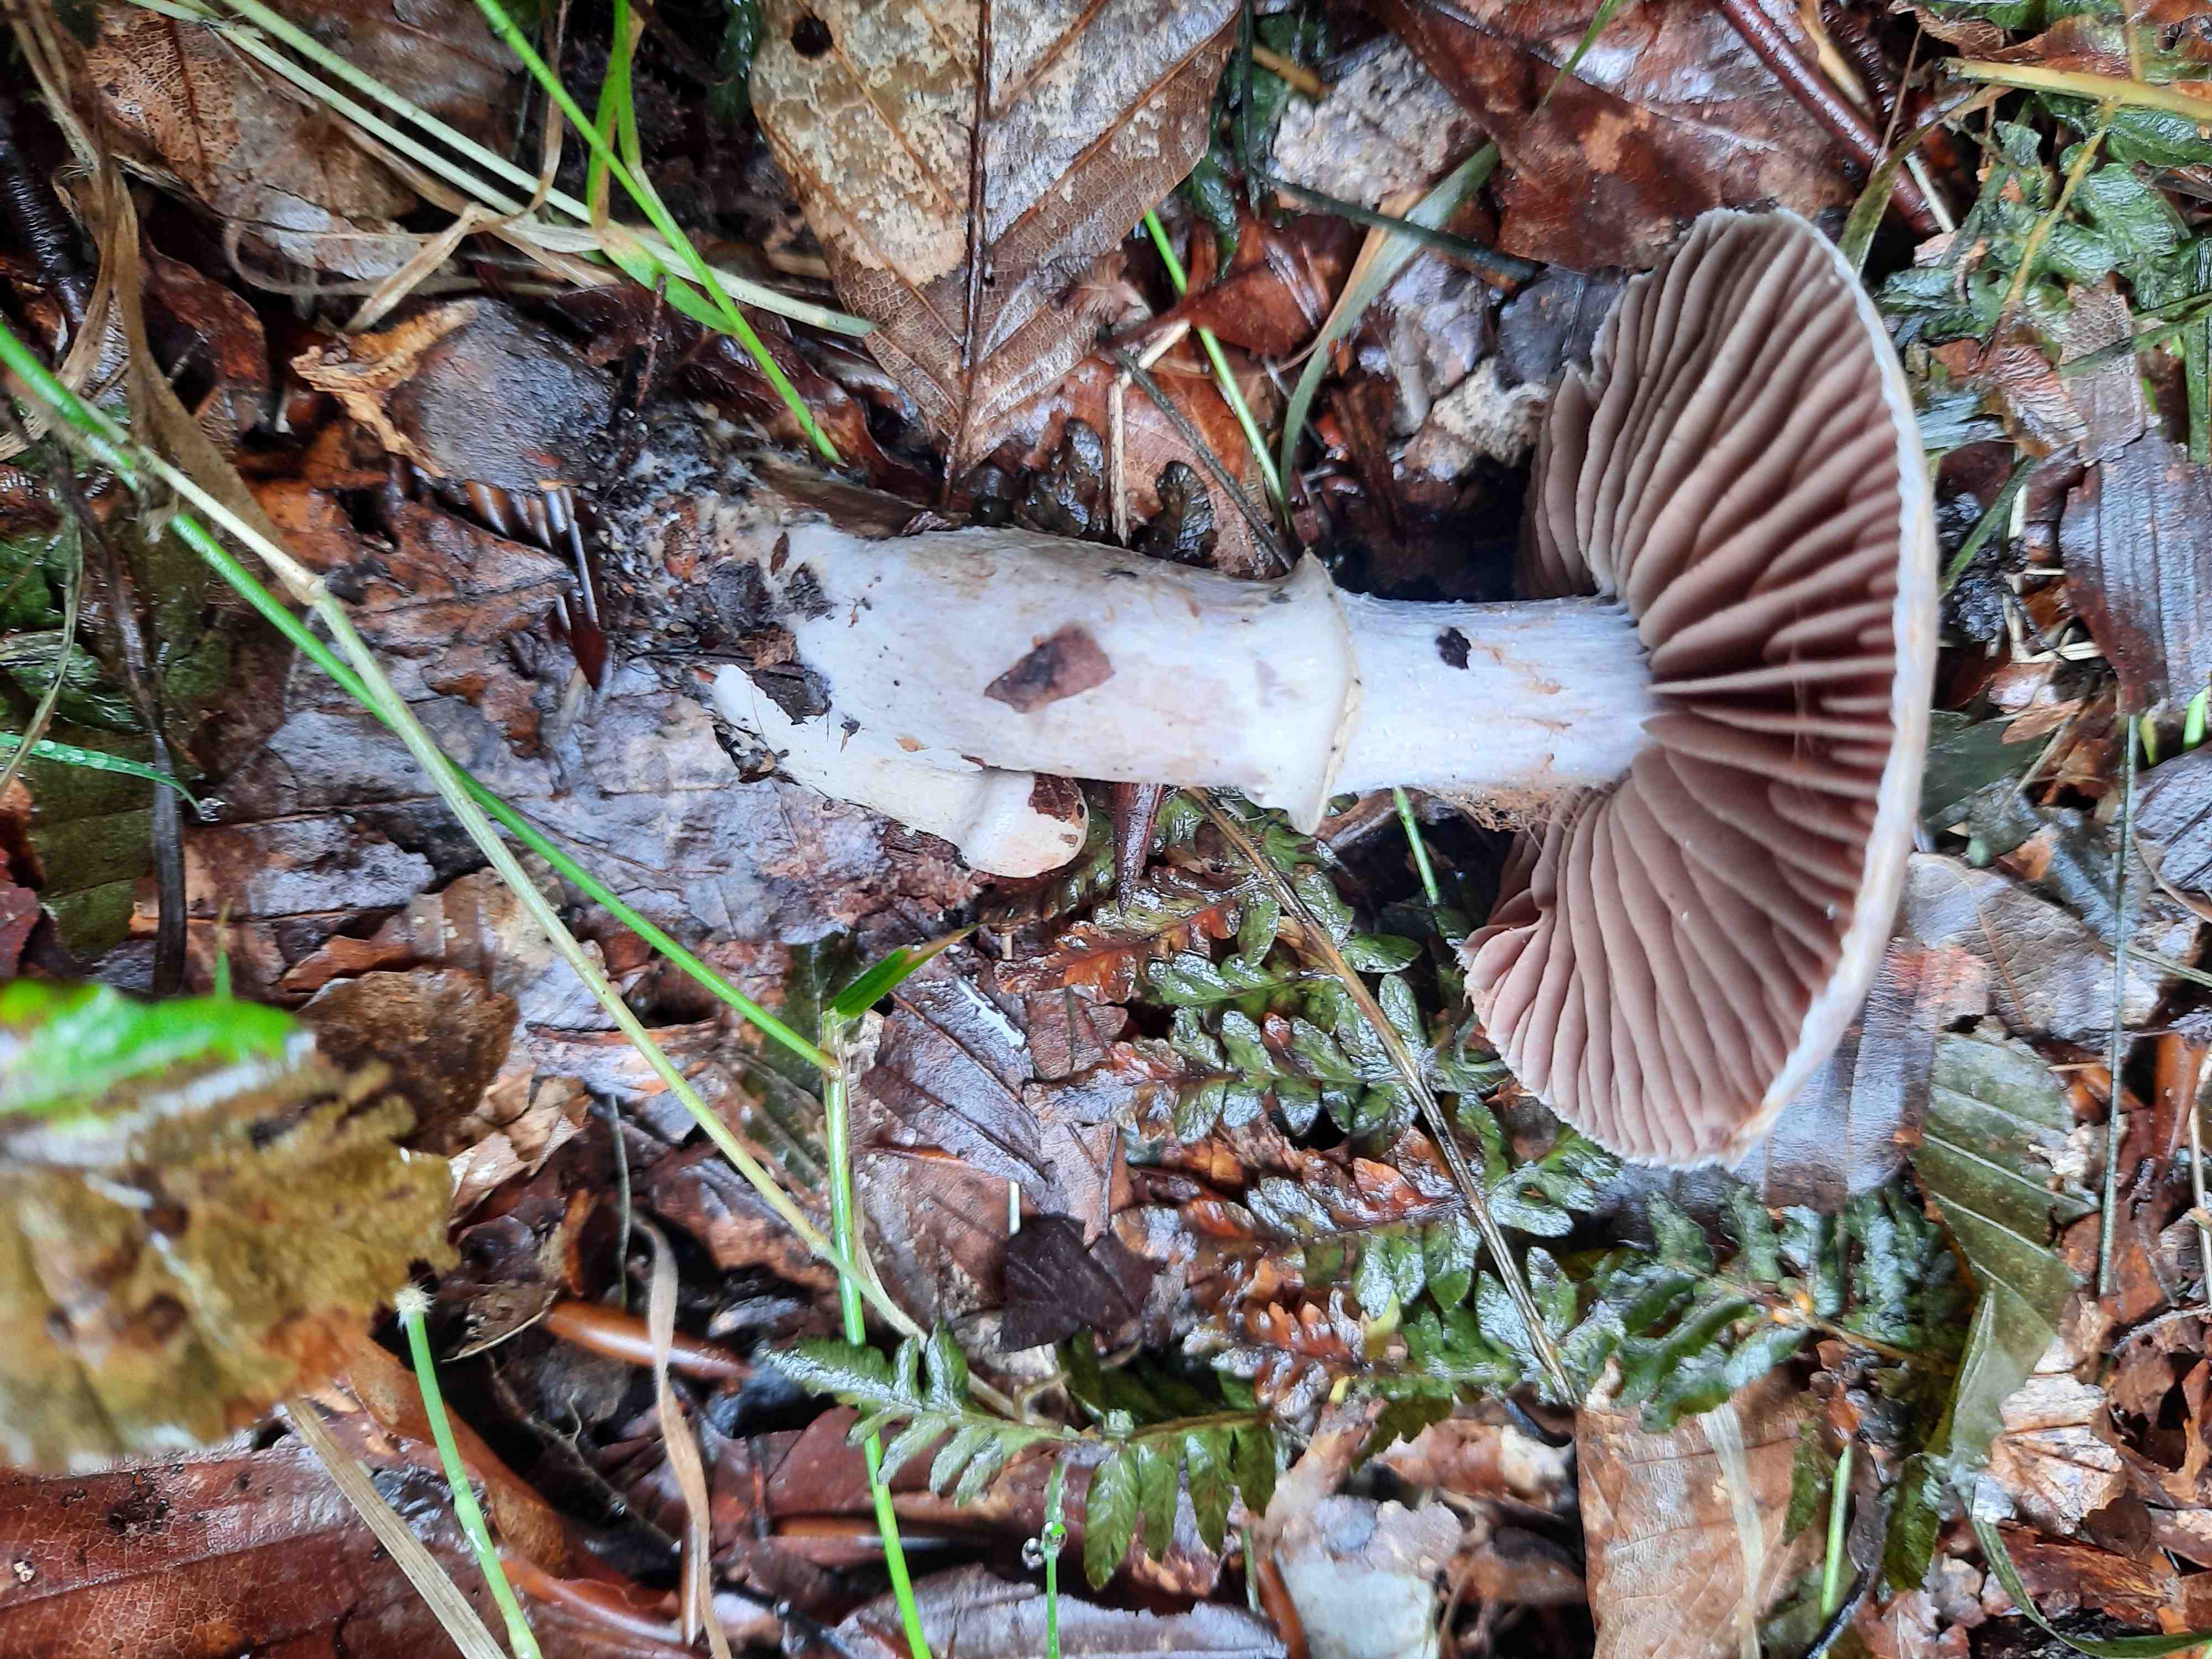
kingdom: Fungi
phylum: Basidiomycota
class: Agaricomycetes
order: Agaricales
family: Cortinariaceae
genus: Cortinarius
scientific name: Cortinarius
